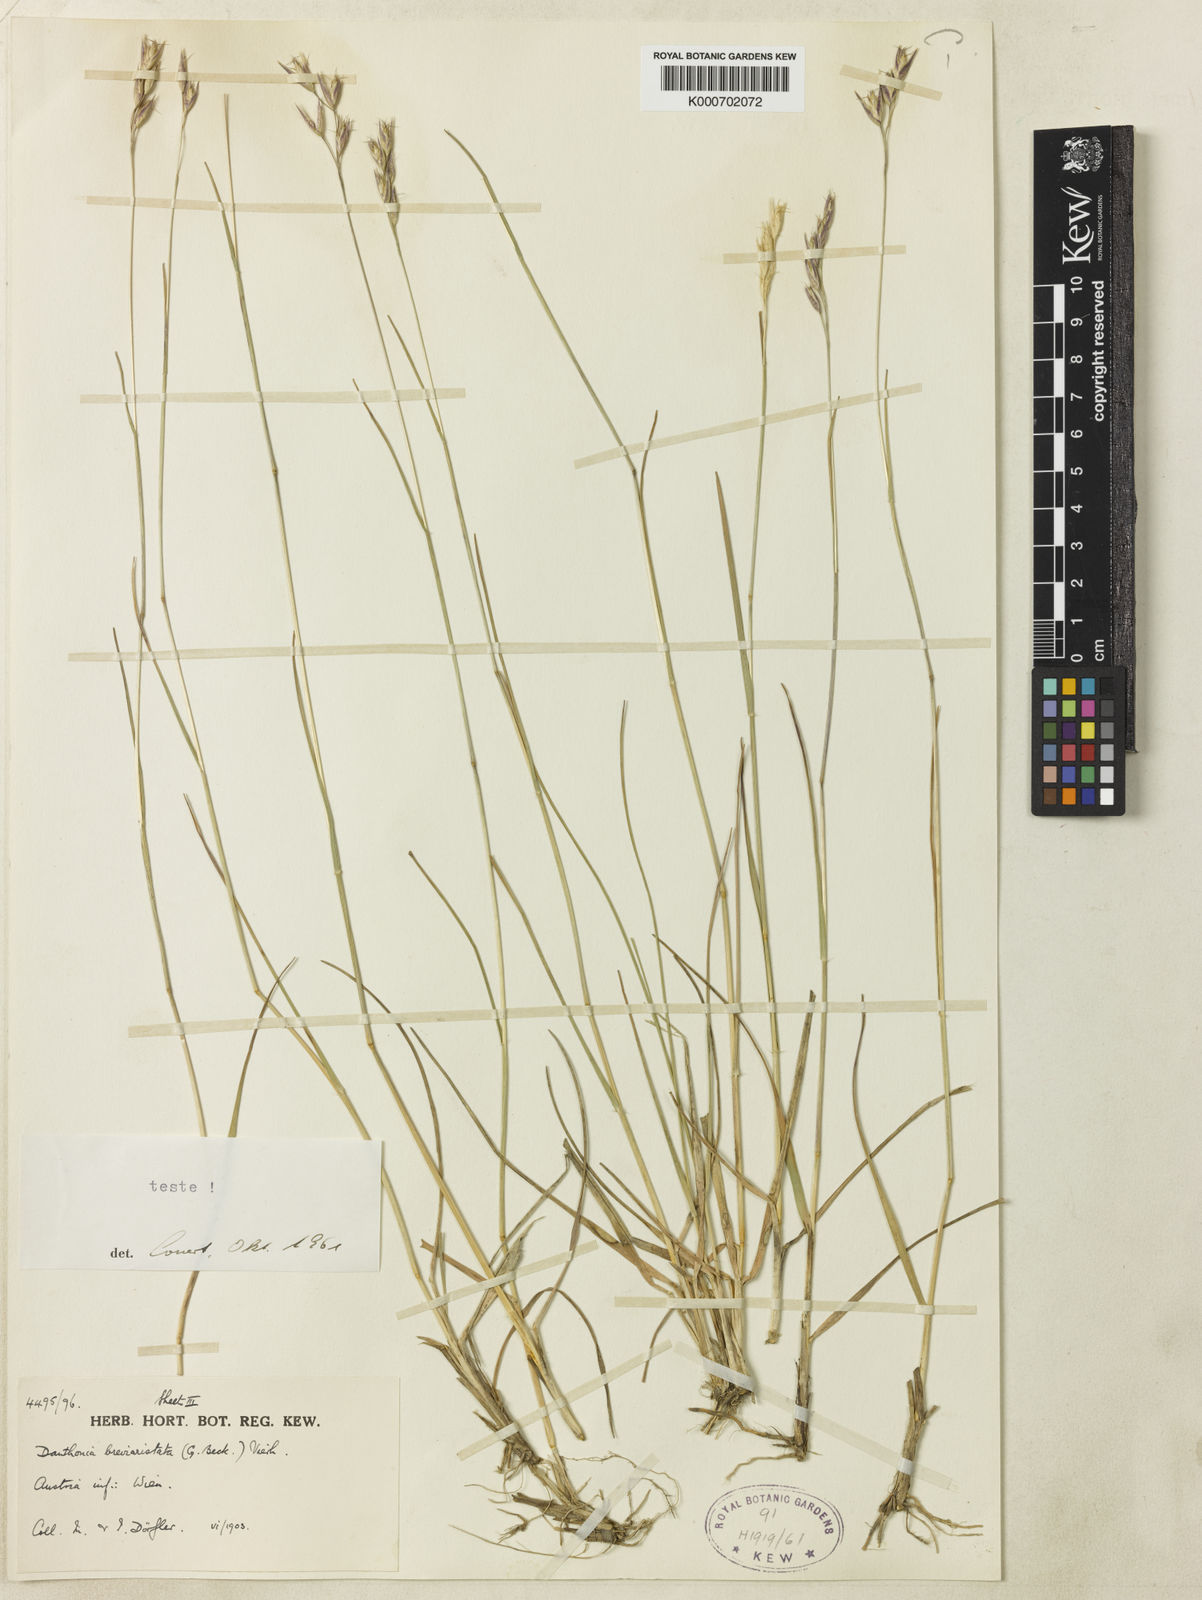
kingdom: Plantae
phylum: Tracheophyta
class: Liliopsida
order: Poales
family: Poaceae
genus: Danthonia
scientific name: Danthonia breviaristata
